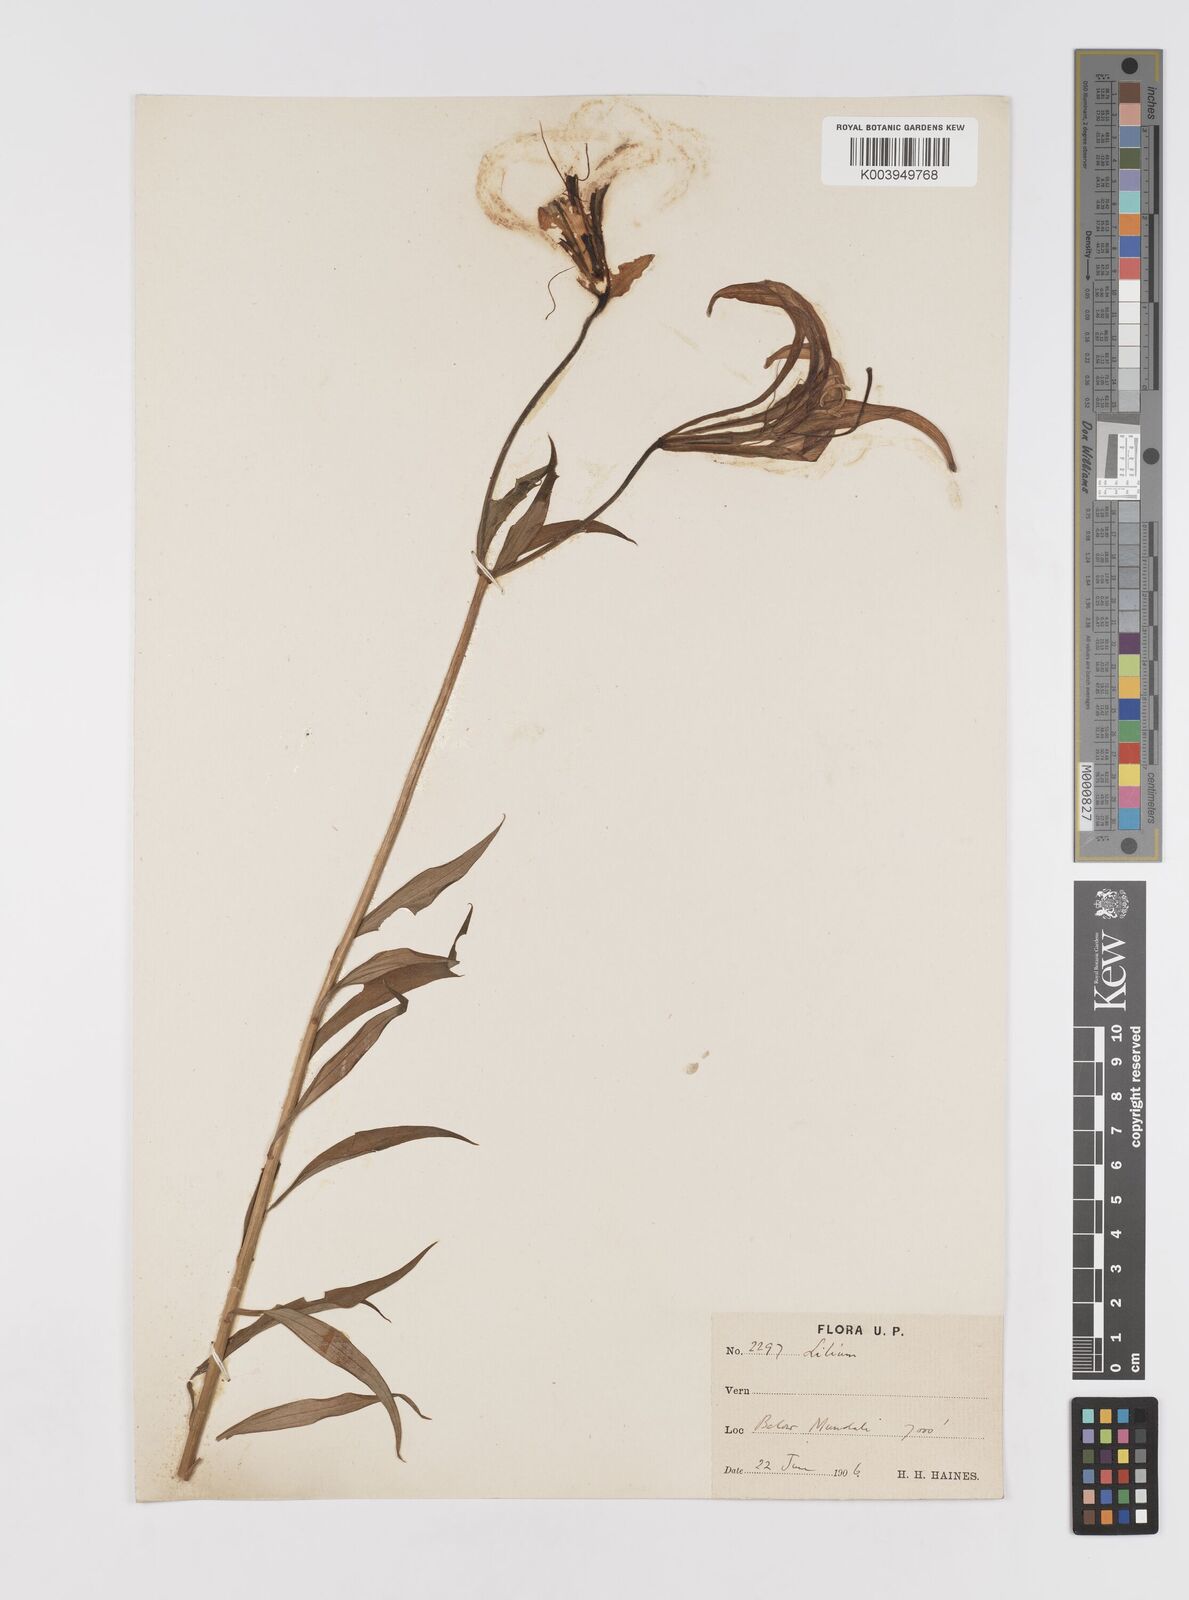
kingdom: Plantae
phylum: Tracheophyta
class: Liliopsida
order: Liliales
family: Liliaceae
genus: Lilium
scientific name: Lilium polyphyllum
